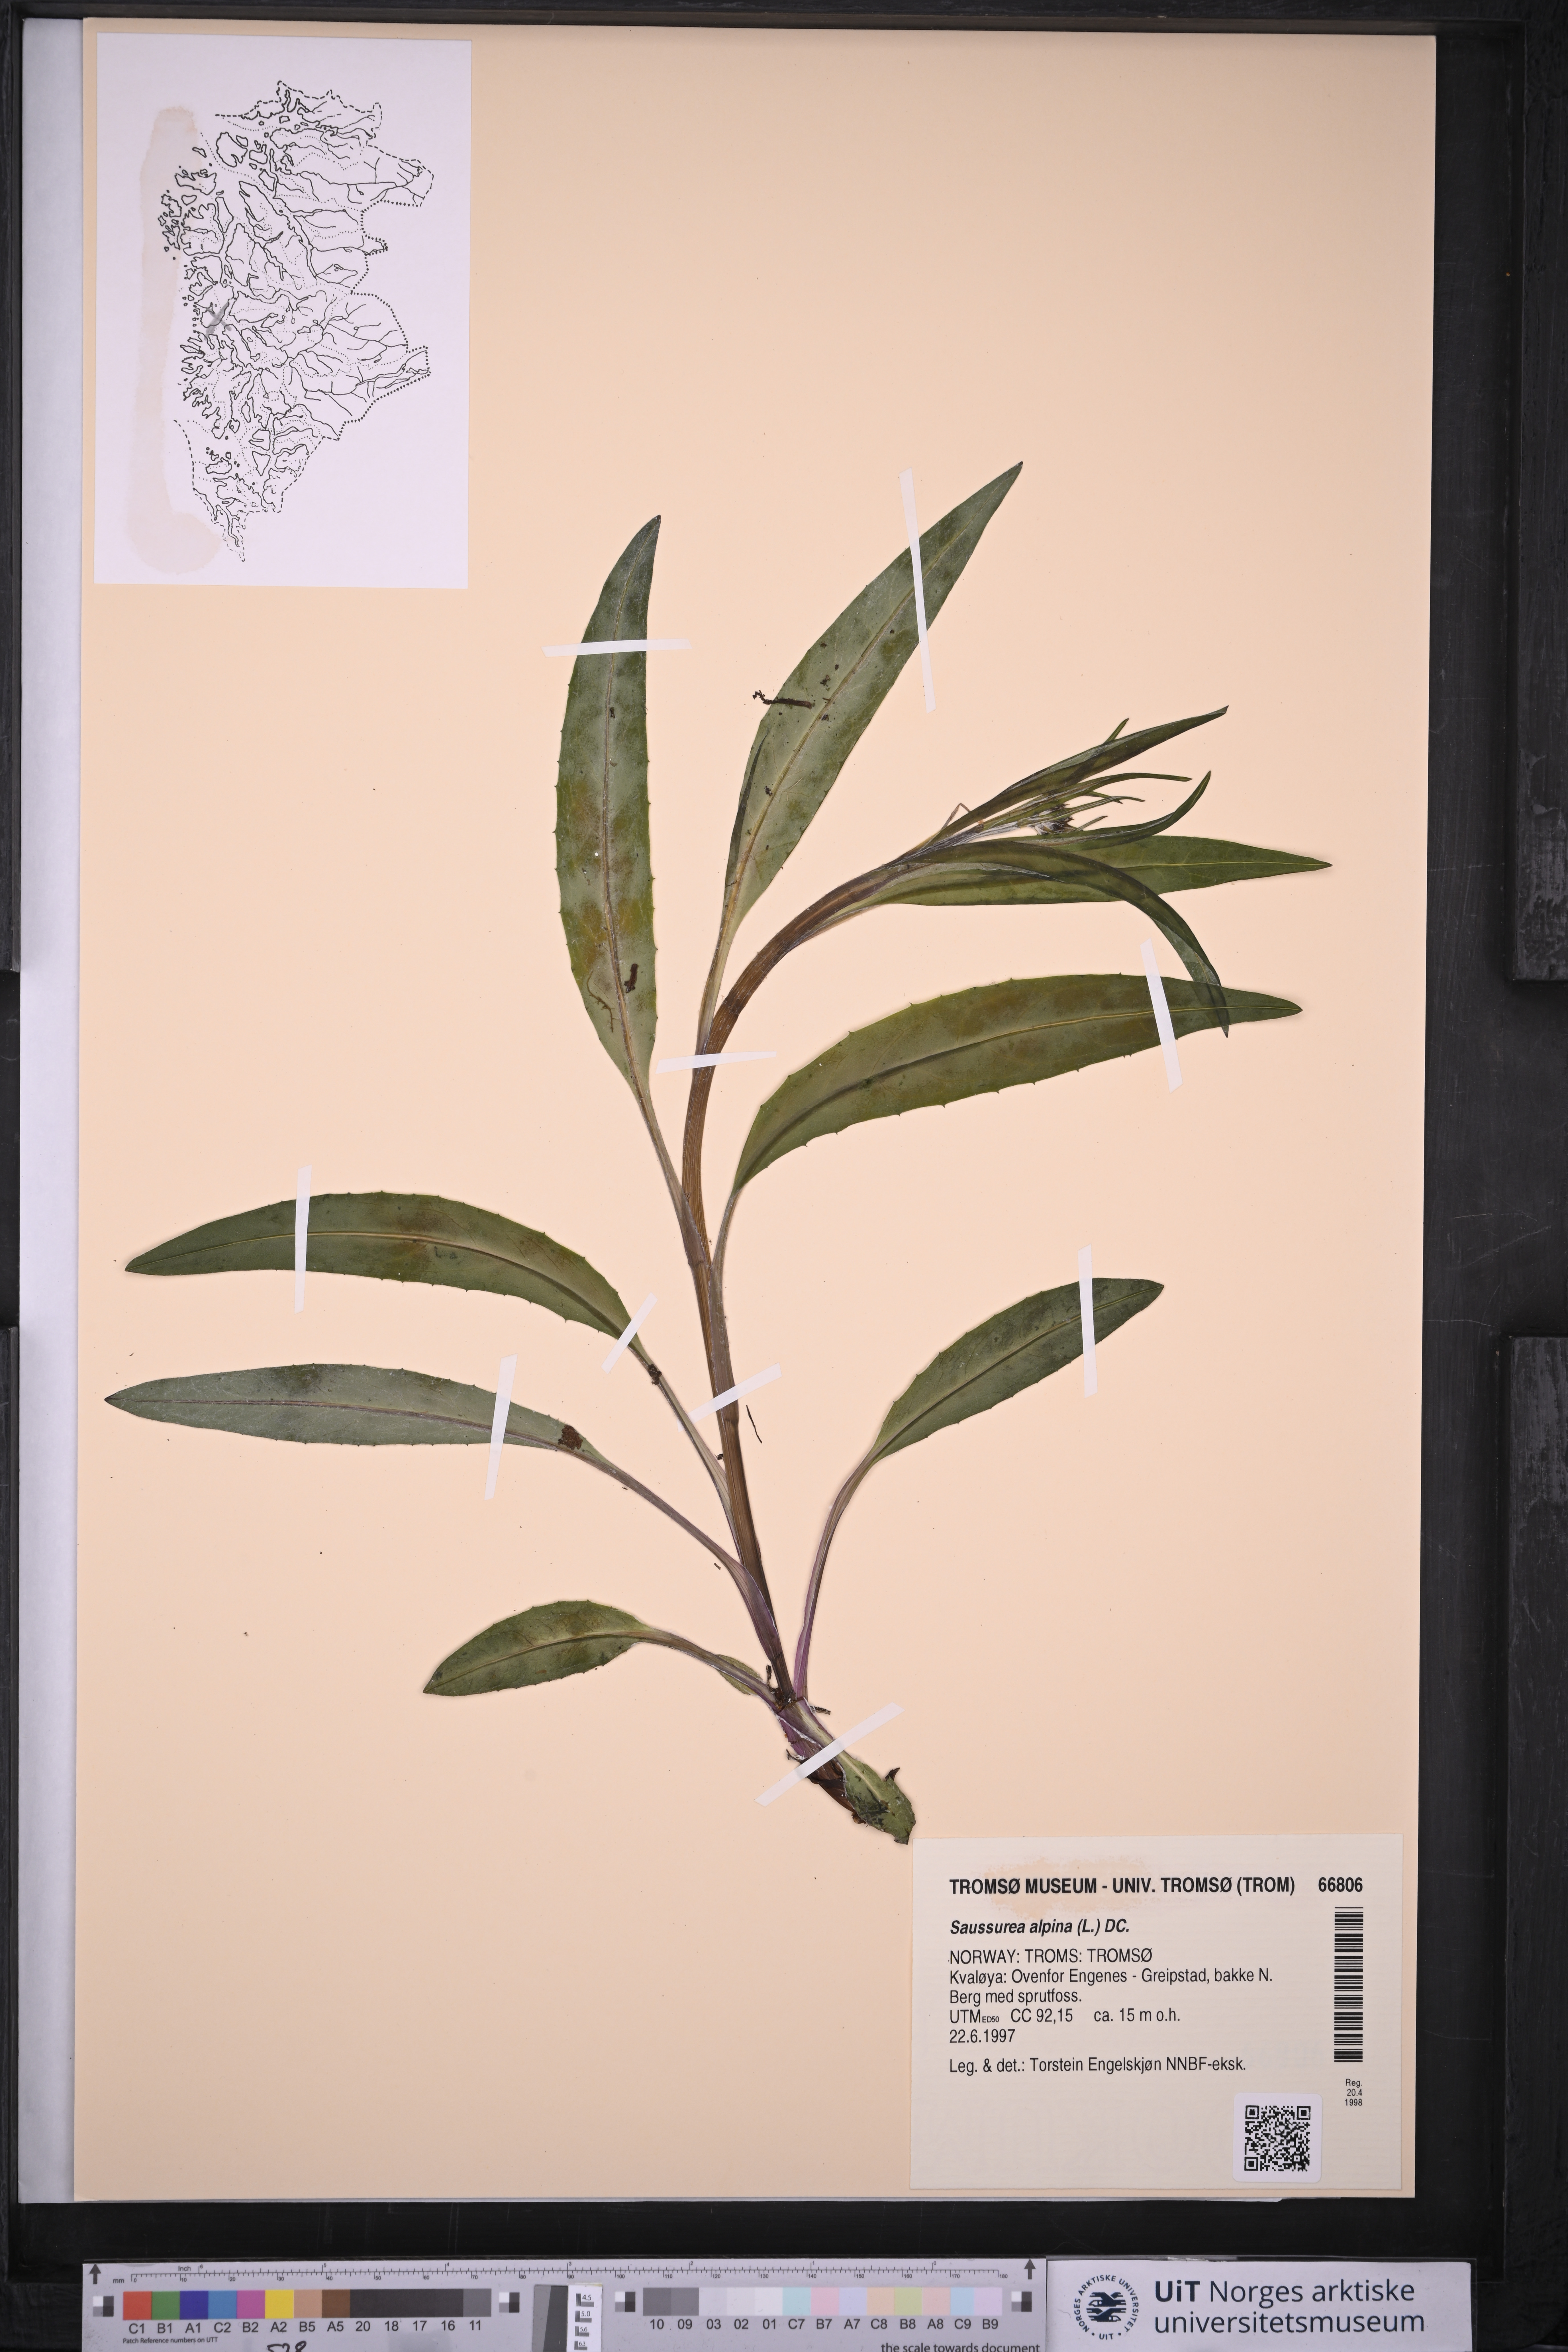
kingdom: Plantae
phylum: Tracheophyta
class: Magnoliopsida
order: Asterales
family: Asteraceae
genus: Saussurea
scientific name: Saussurea alpina
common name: Alpine saw-wort
